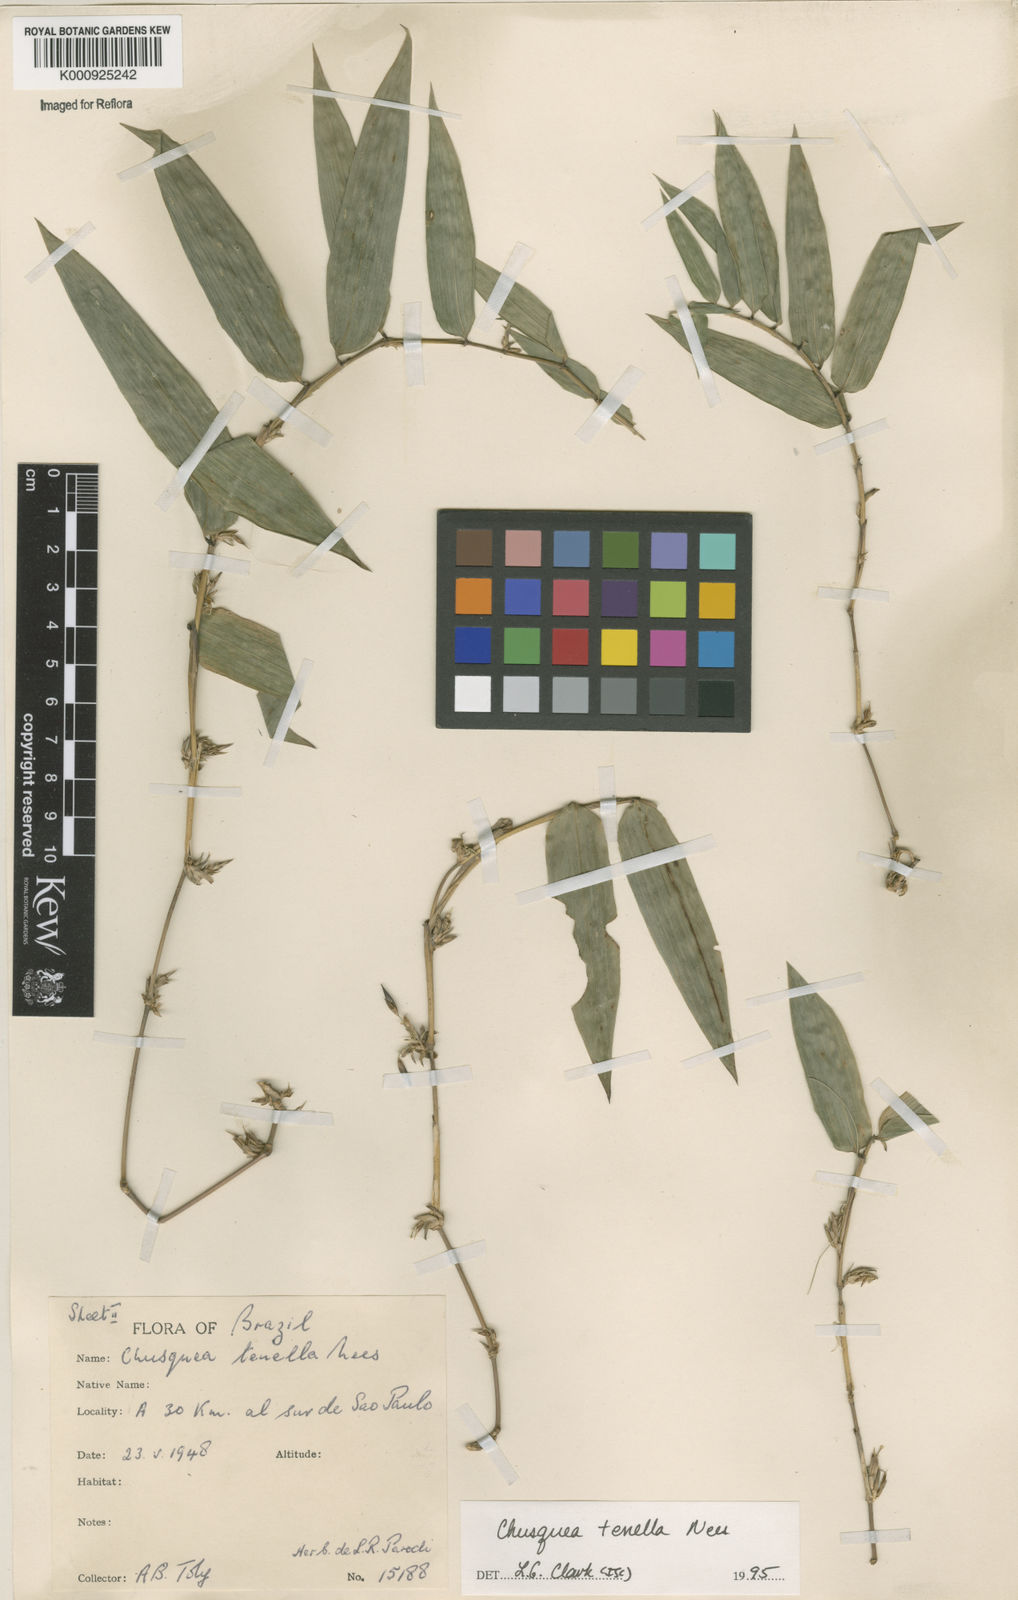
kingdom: Plantae
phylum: Tracheophyta
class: Liliopsida
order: Poales
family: Poaceae
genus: Chusquea
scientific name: Chusquea tenella
